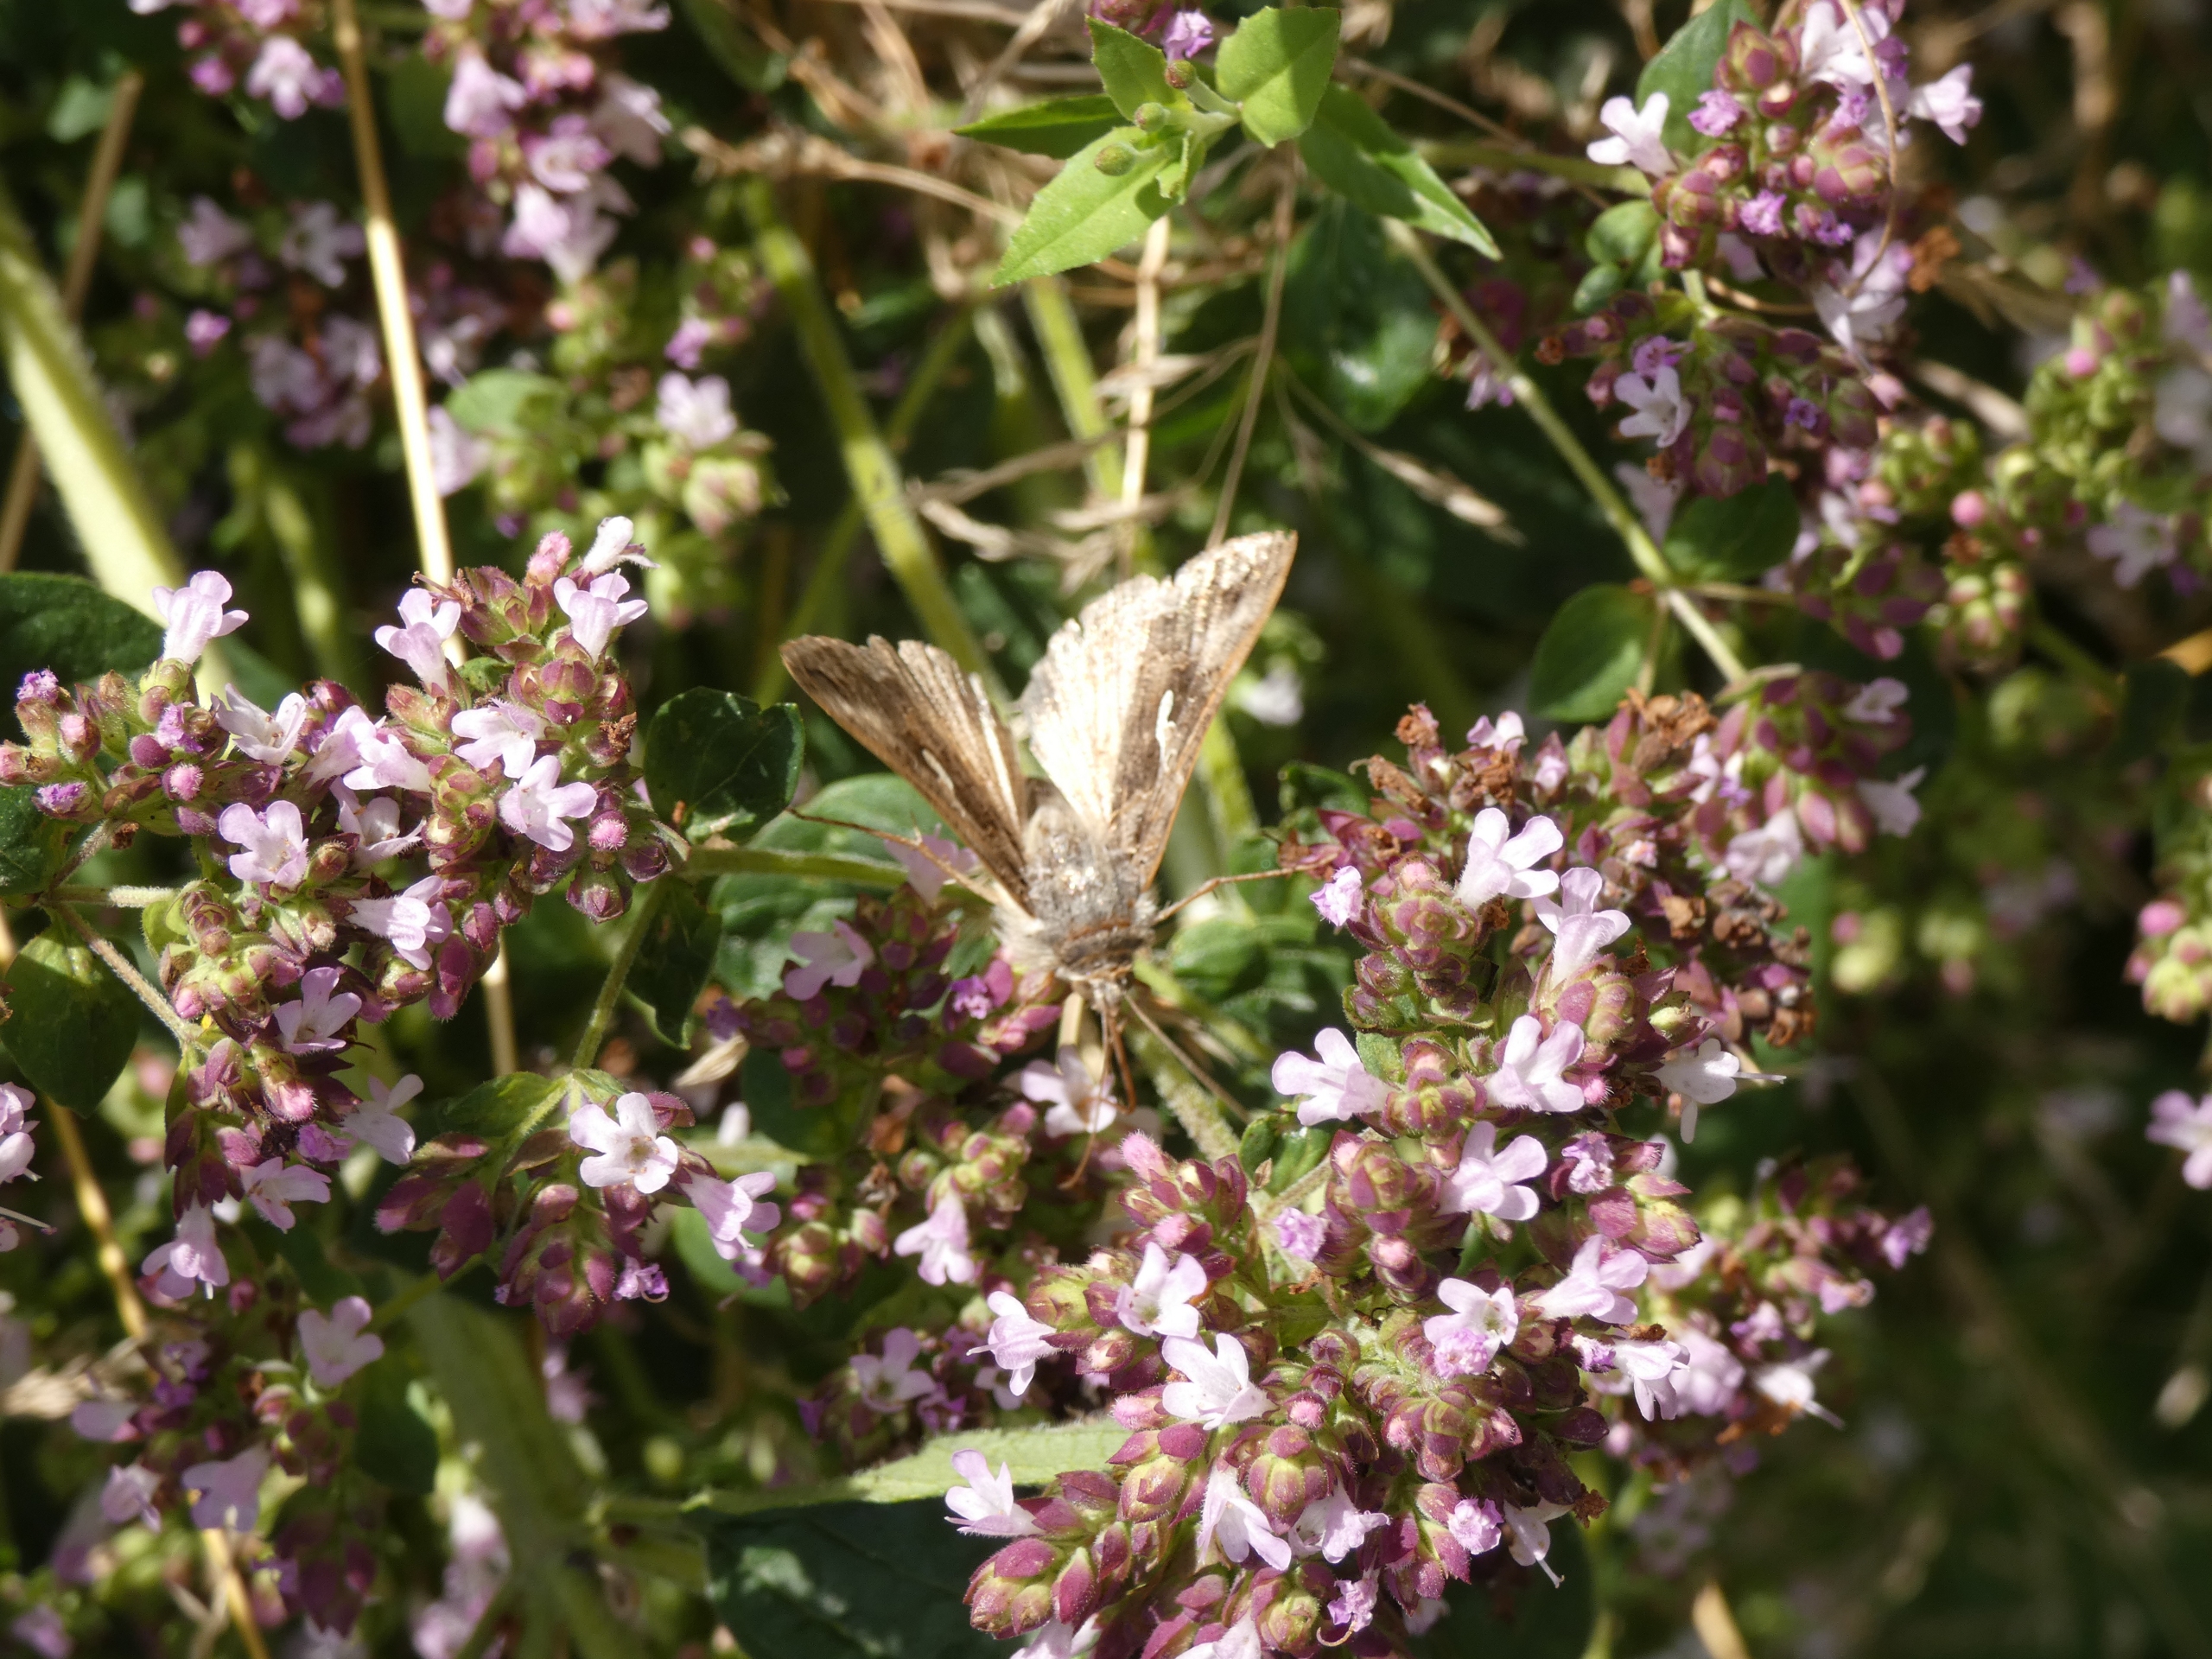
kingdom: Animalia
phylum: Arthropoda
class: Insecta
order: Lepidoptera
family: Noctuidae
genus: Autographa
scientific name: Autographa gamma
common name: Gammaugle
